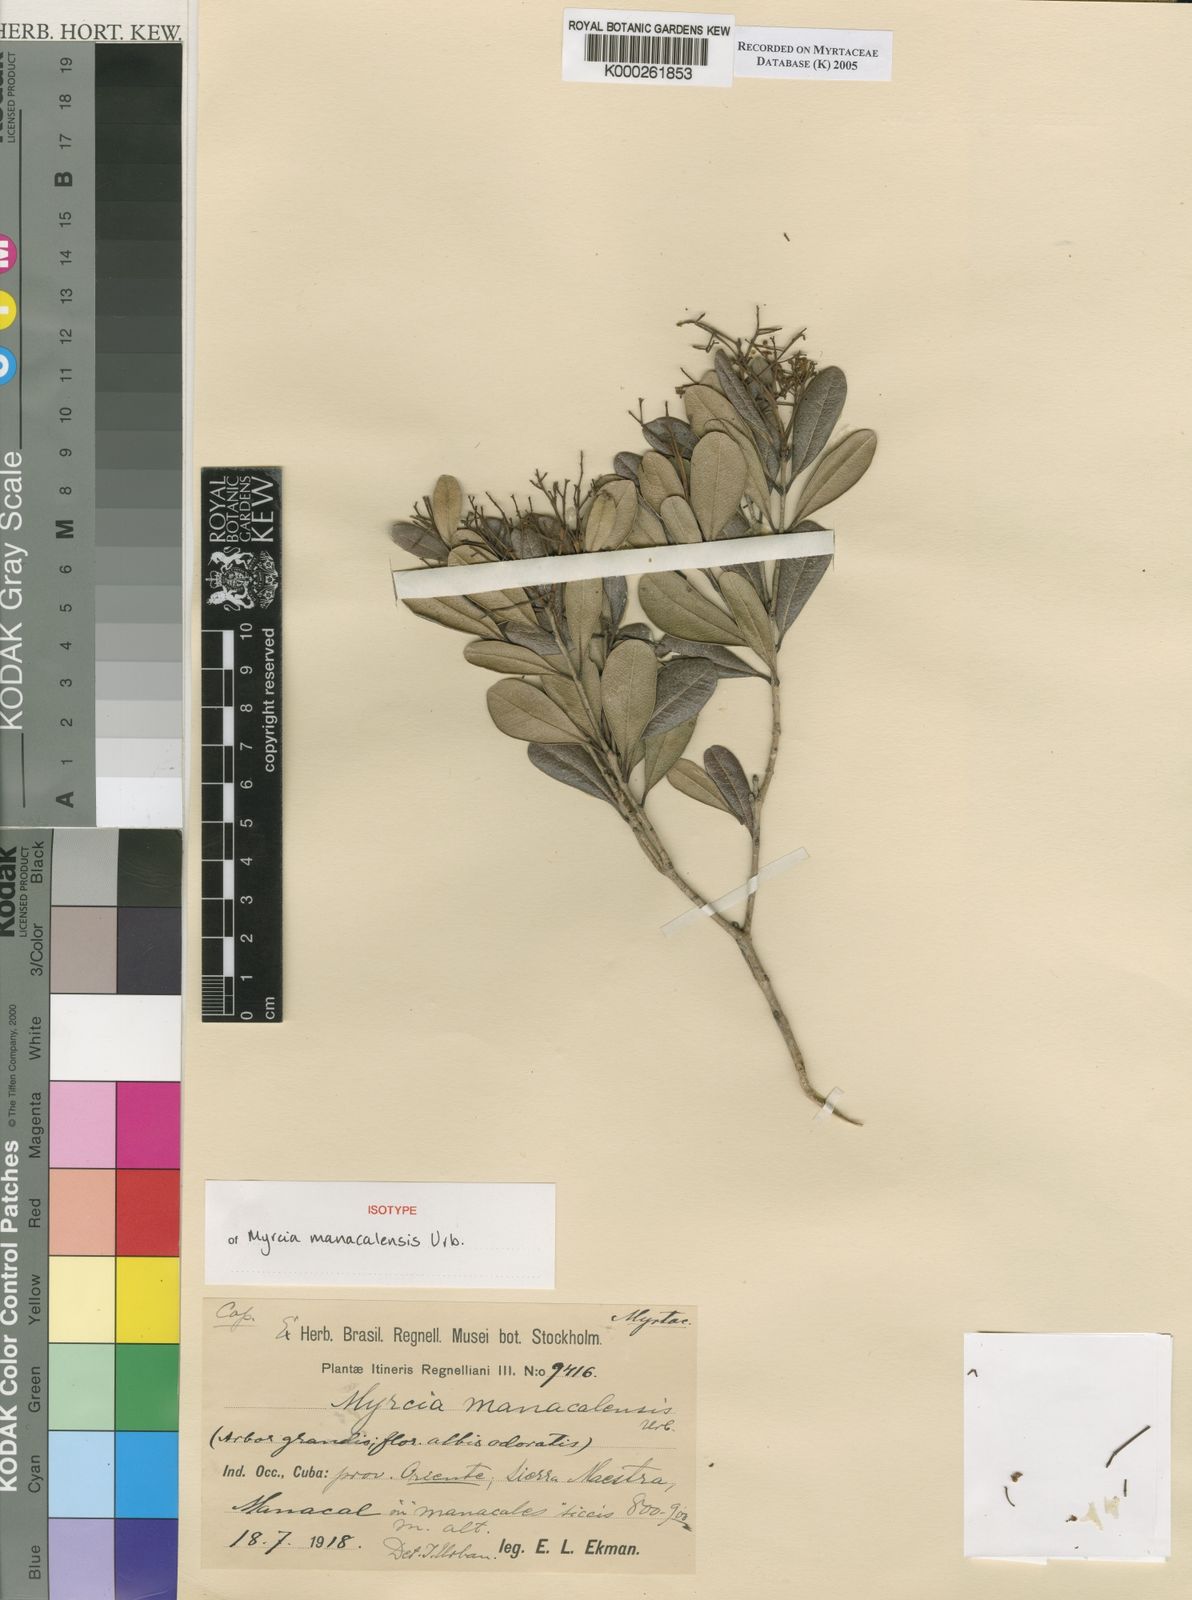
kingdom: Plantae
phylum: Tracheophyta
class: Magnoliopsida
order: Myrtales
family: Myrtaceae
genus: Myrcia
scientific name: Myrcia manacalensis
